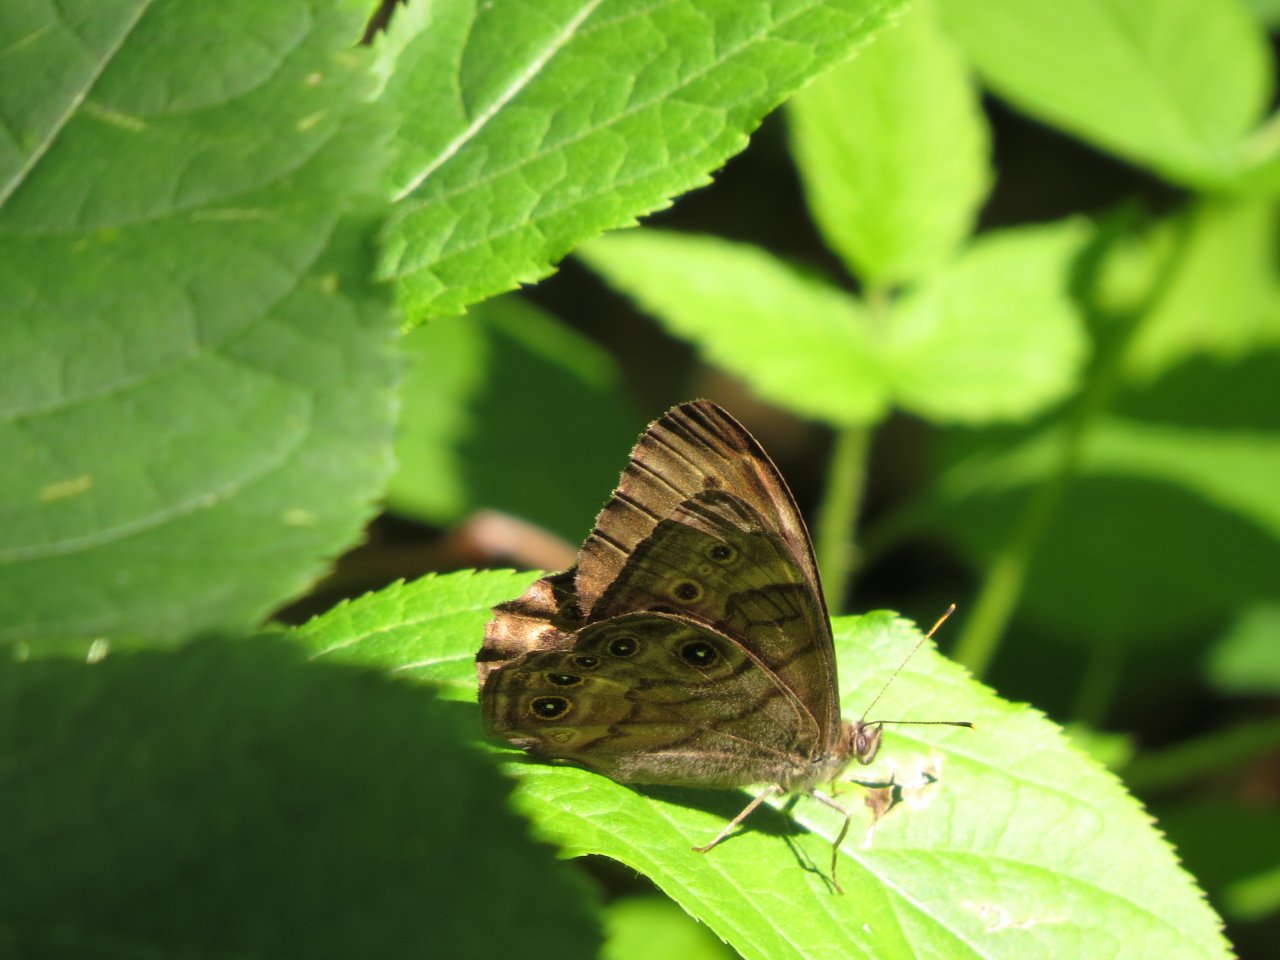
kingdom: Animalia
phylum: Arthropoda
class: Insecta
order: Lepidoptera
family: Nymphalidae
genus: Lethe
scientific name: Lethe anthedon
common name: Northern Pearly-Eye
